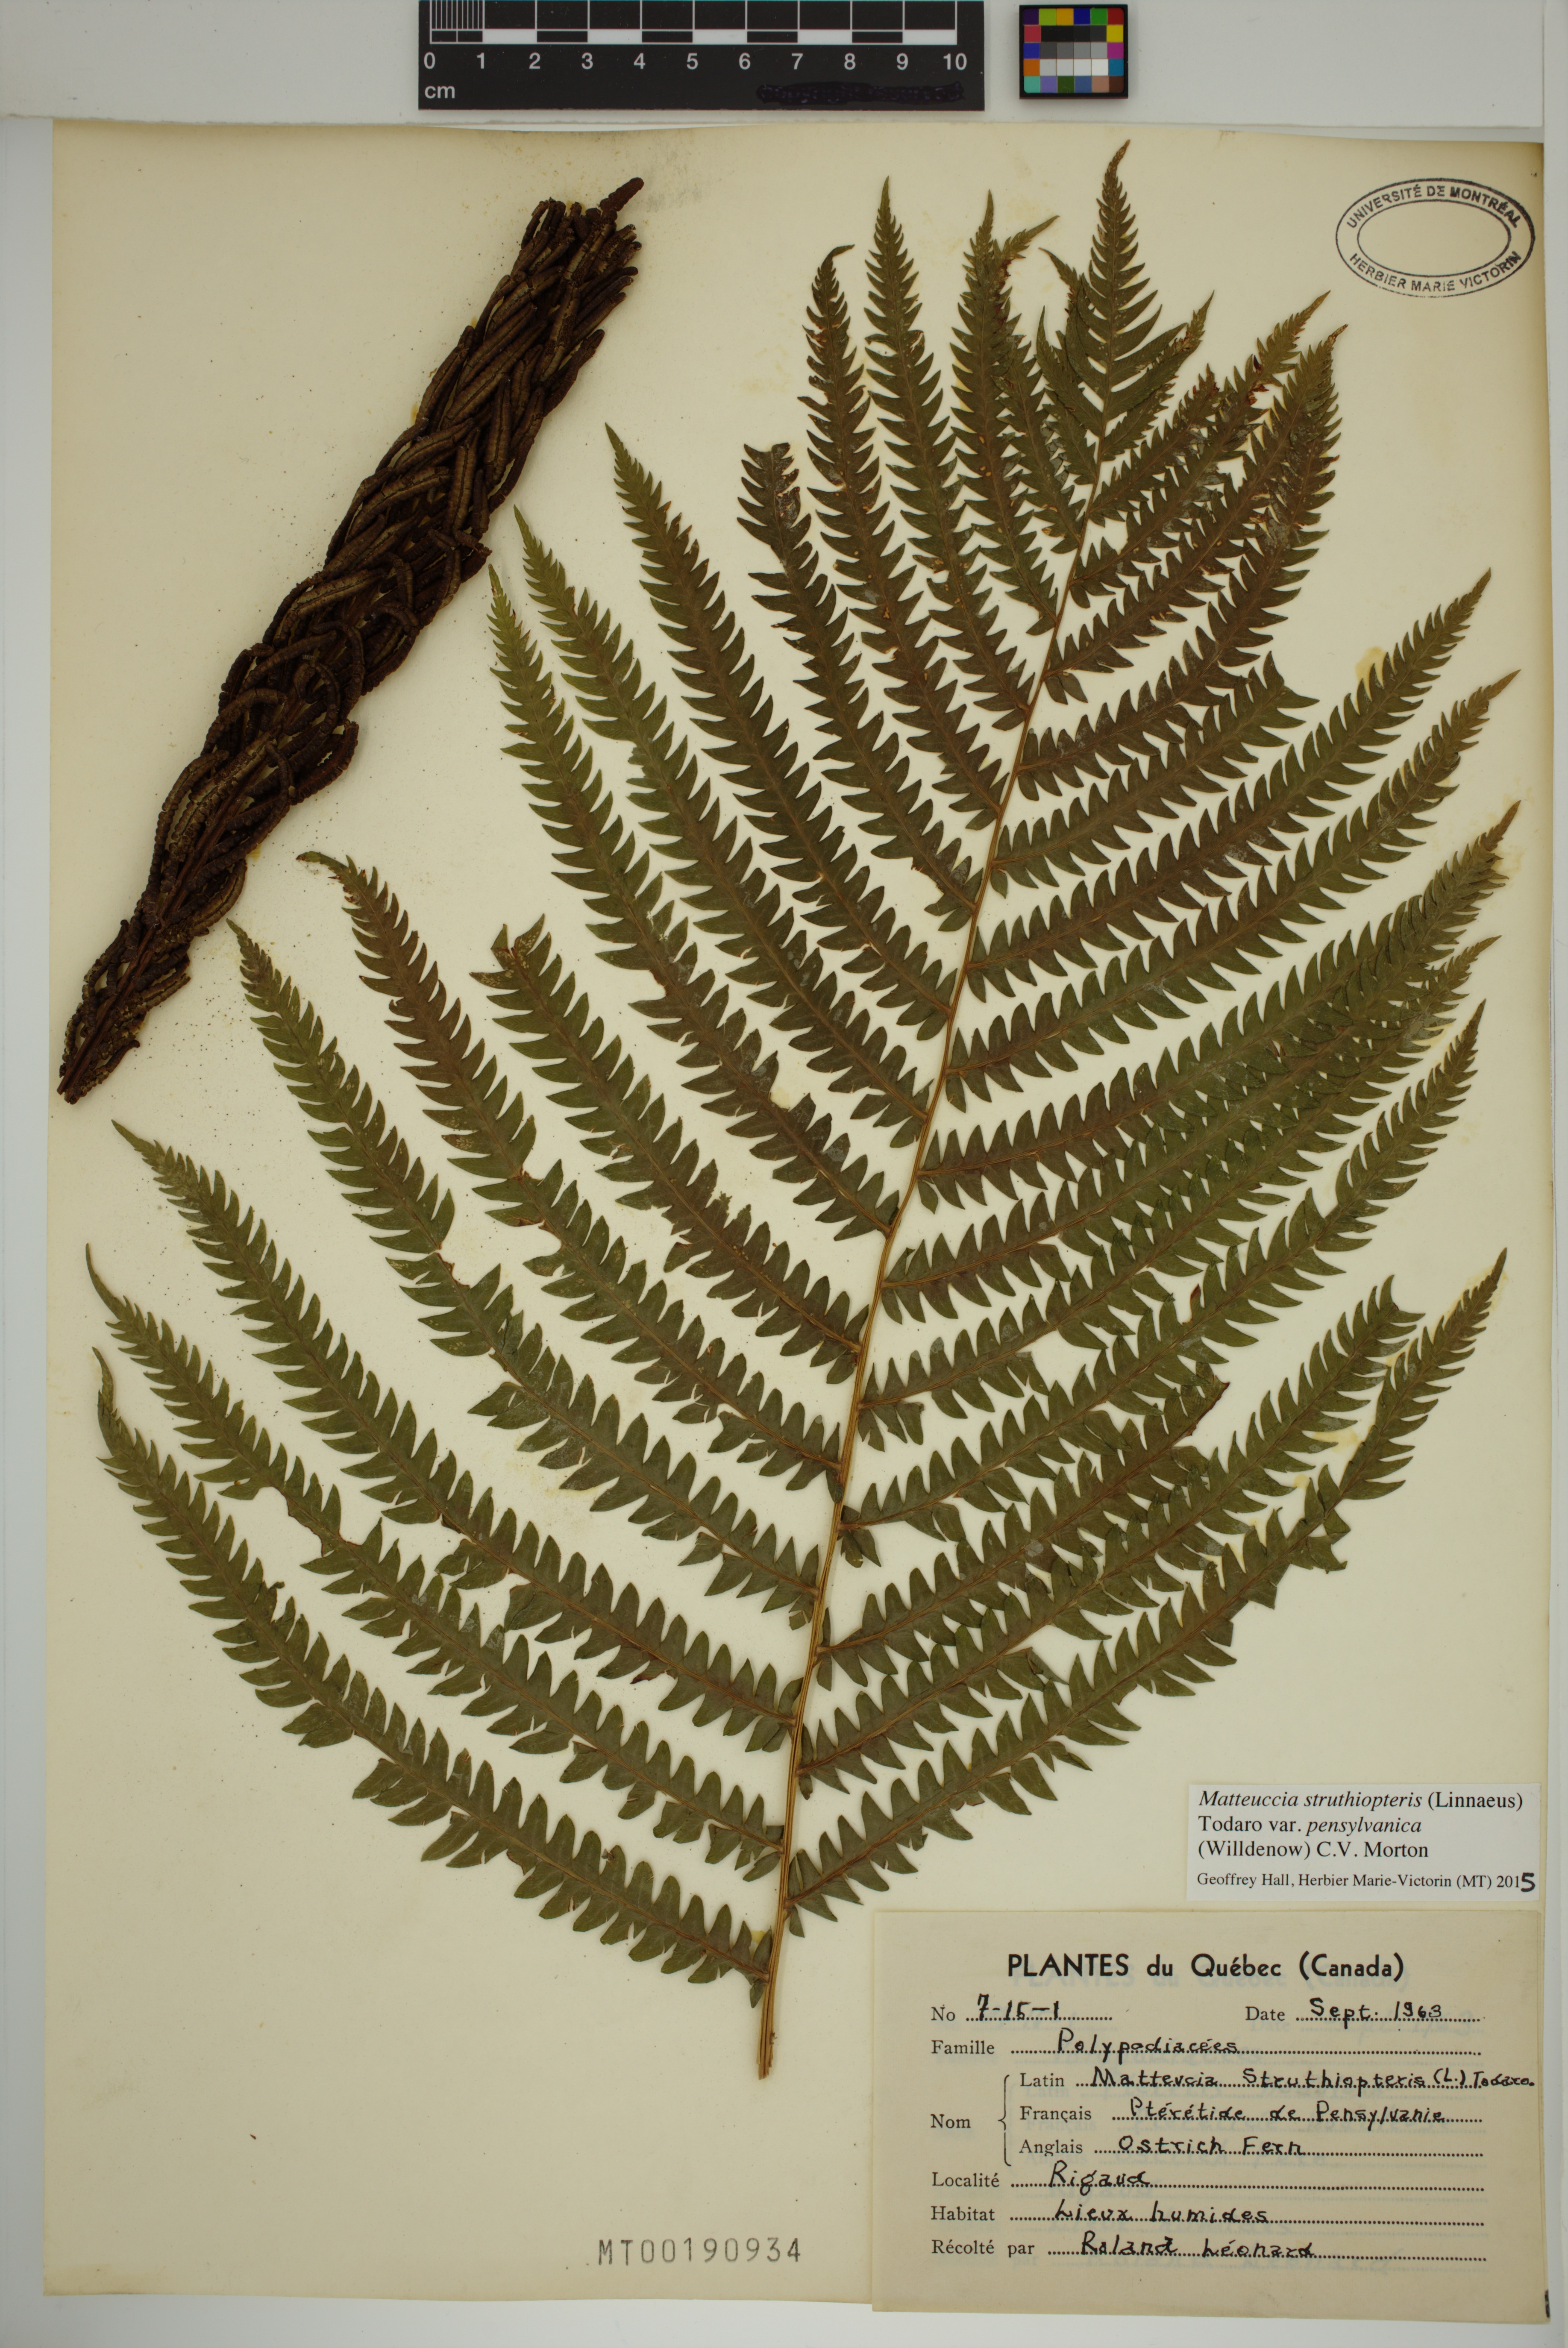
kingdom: Plantae
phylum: Tracheophyta
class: Polypodiopsida
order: Polypodiales
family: Onocleaceae
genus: Matteuccia
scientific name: Matteuccia pensylvanica
